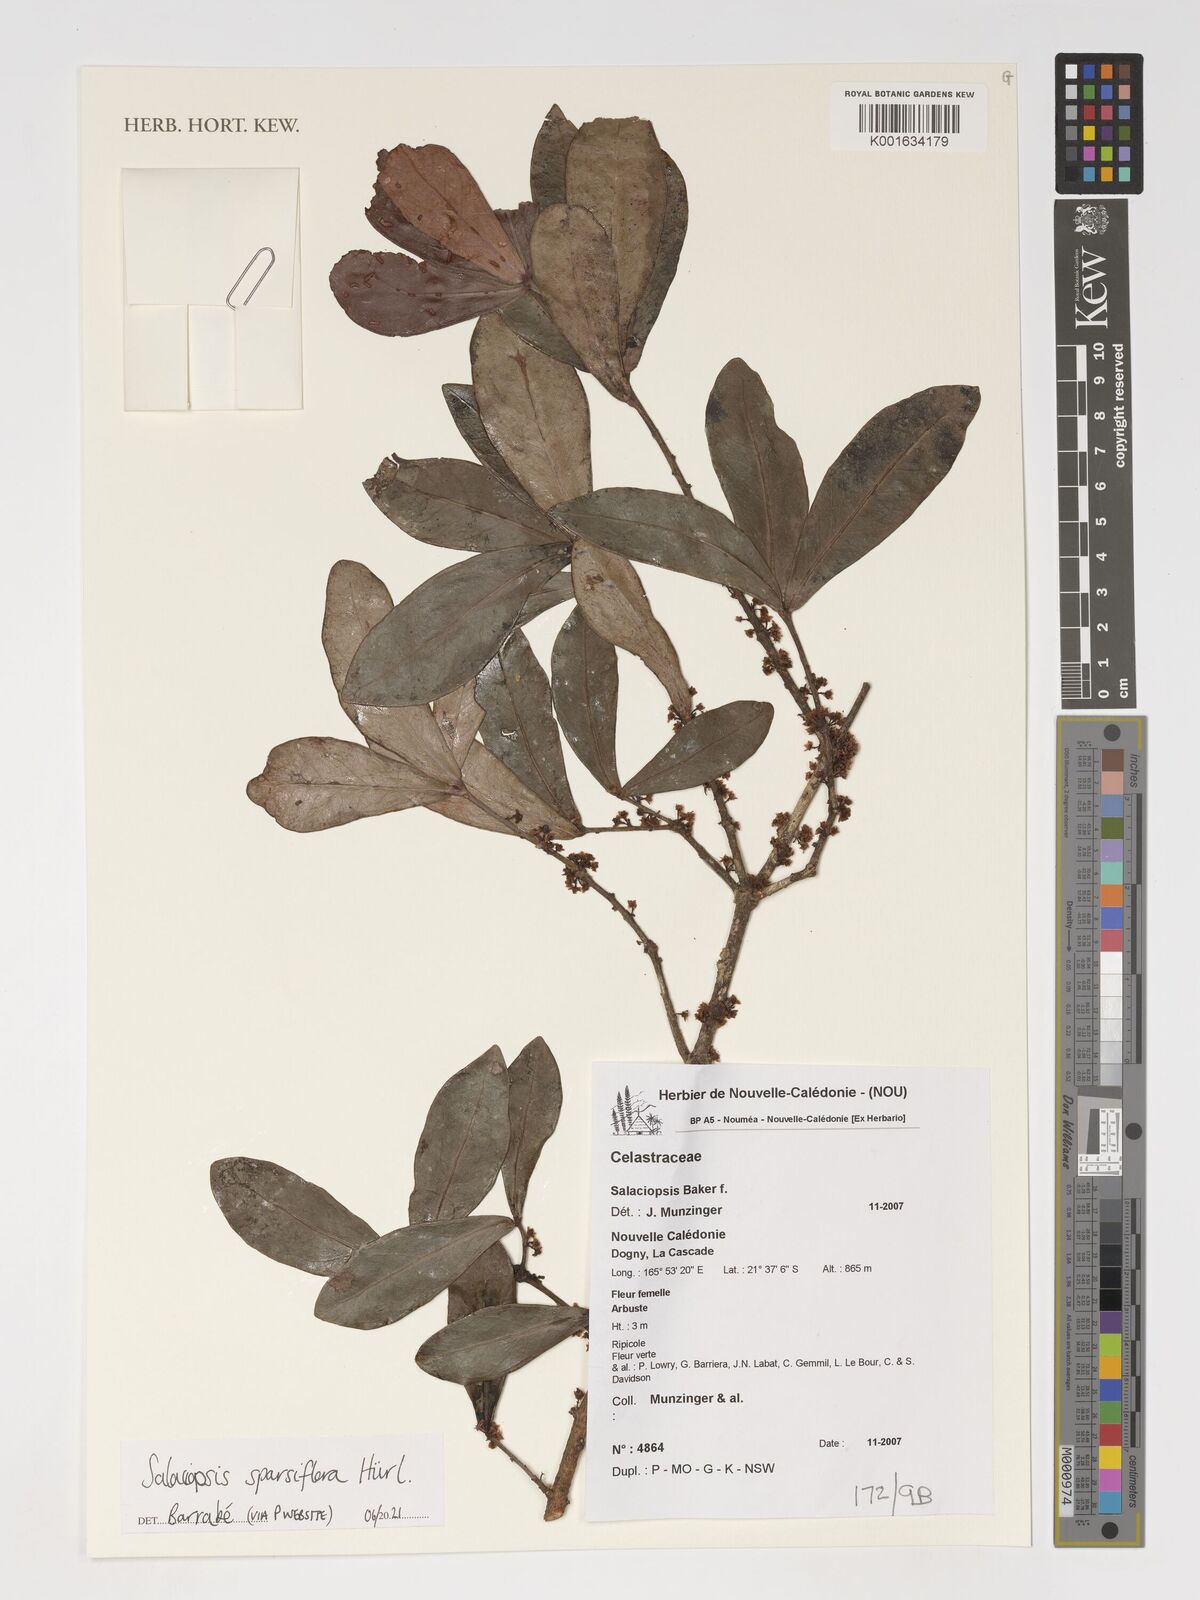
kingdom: Plantae
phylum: Tracheophyta
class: Magnoliopsida
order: Celastrales
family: Celastraceae
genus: Salaciopsis
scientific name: Salaciopsis sparsiflora
